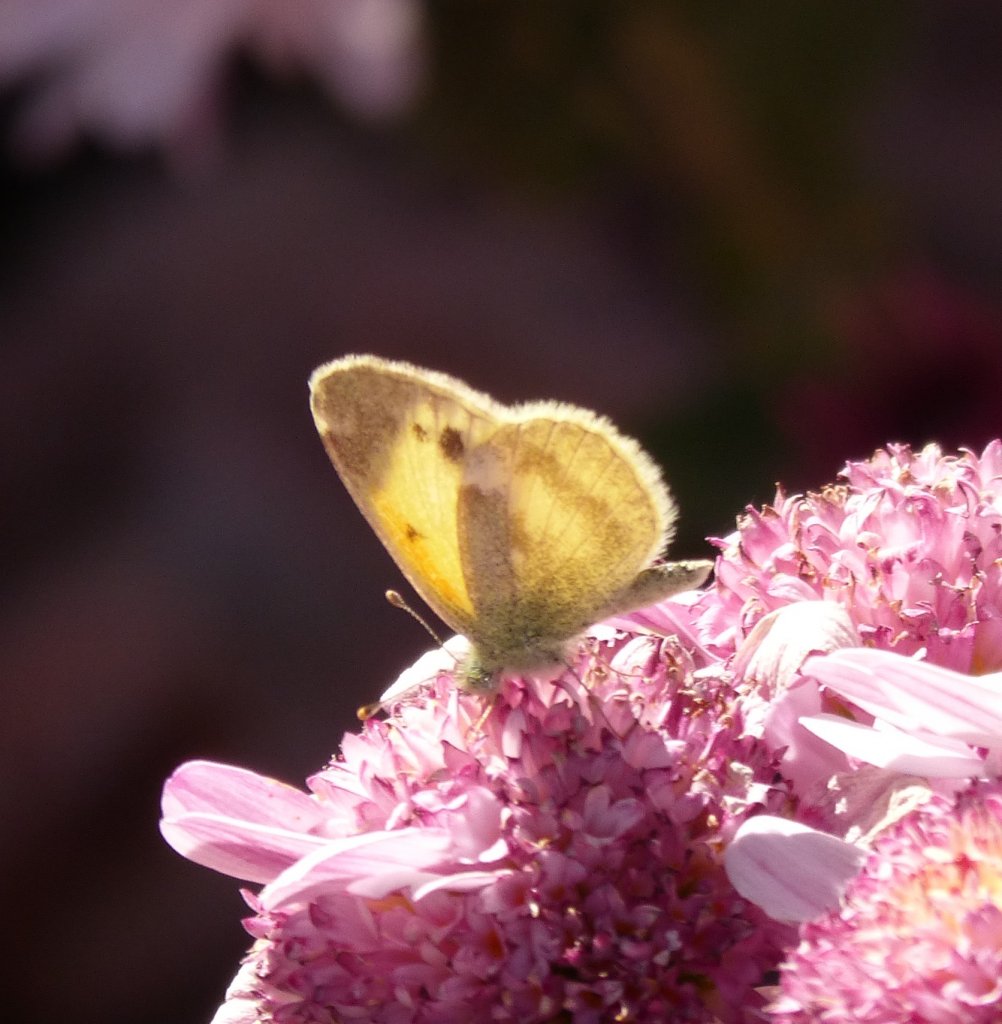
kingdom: Animalia
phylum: Arthropoda
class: Insecta
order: Lepidoptera
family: Pieridae
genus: Nathalis
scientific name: Nathalis iole
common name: Dainty Sulphur
